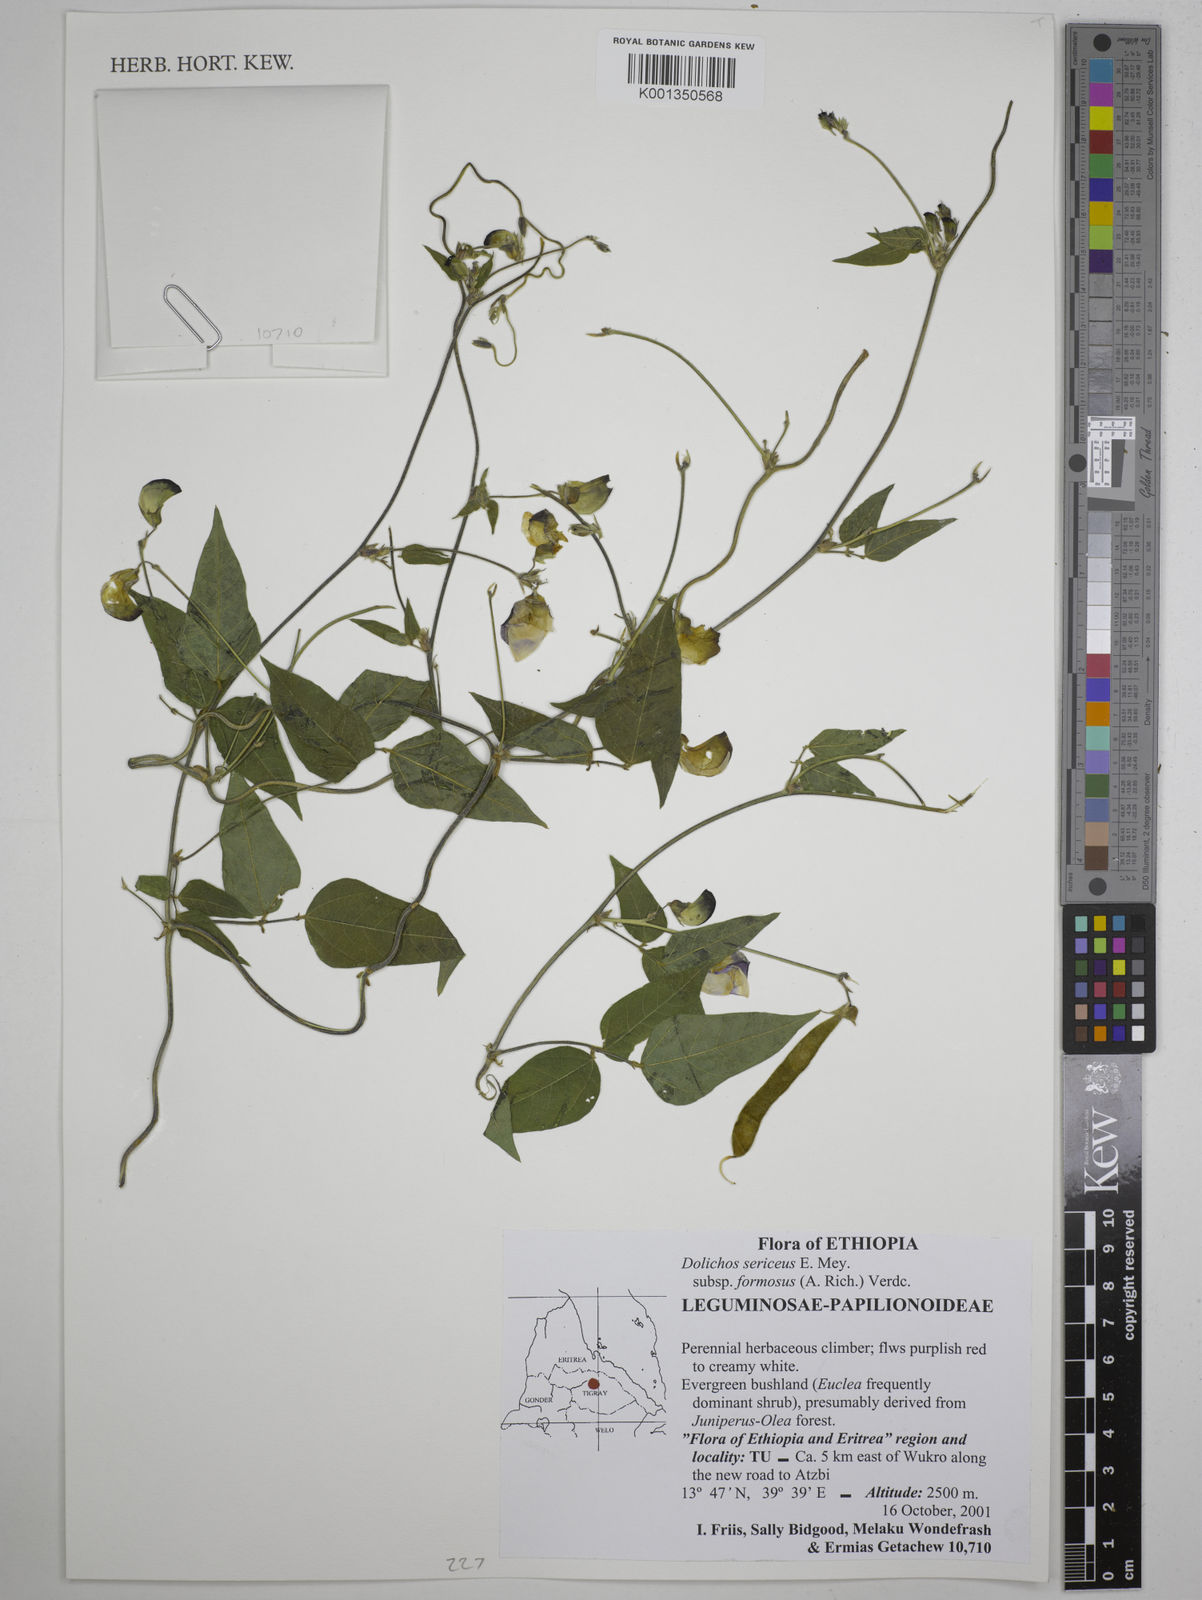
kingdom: Plantae
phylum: Tracheophyta
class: Magnoliopsida
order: Fabales
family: Fabaceae
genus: Dolichos
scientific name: Dolichos
